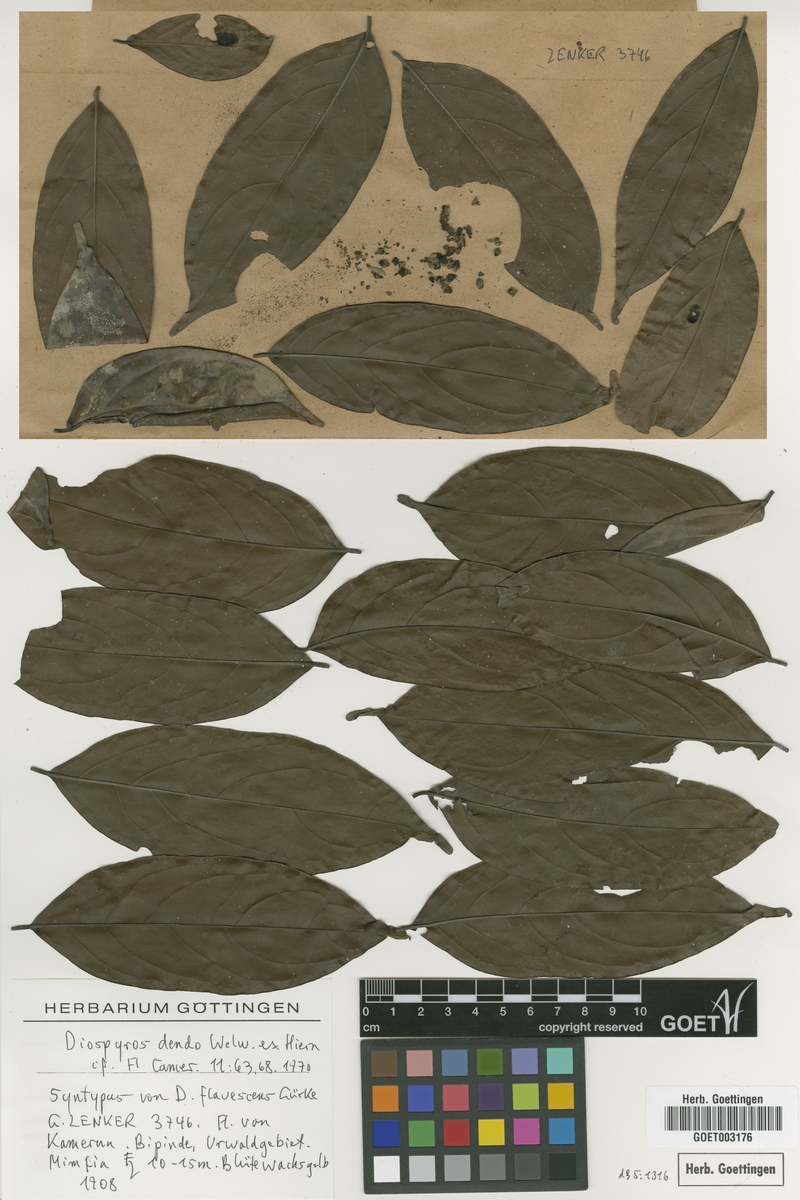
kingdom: Plantae
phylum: Tracheophyta
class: Magnoliopsida
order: Ericales
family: Ebenaceae
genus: Diospyros
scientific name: Diospyros dendo
